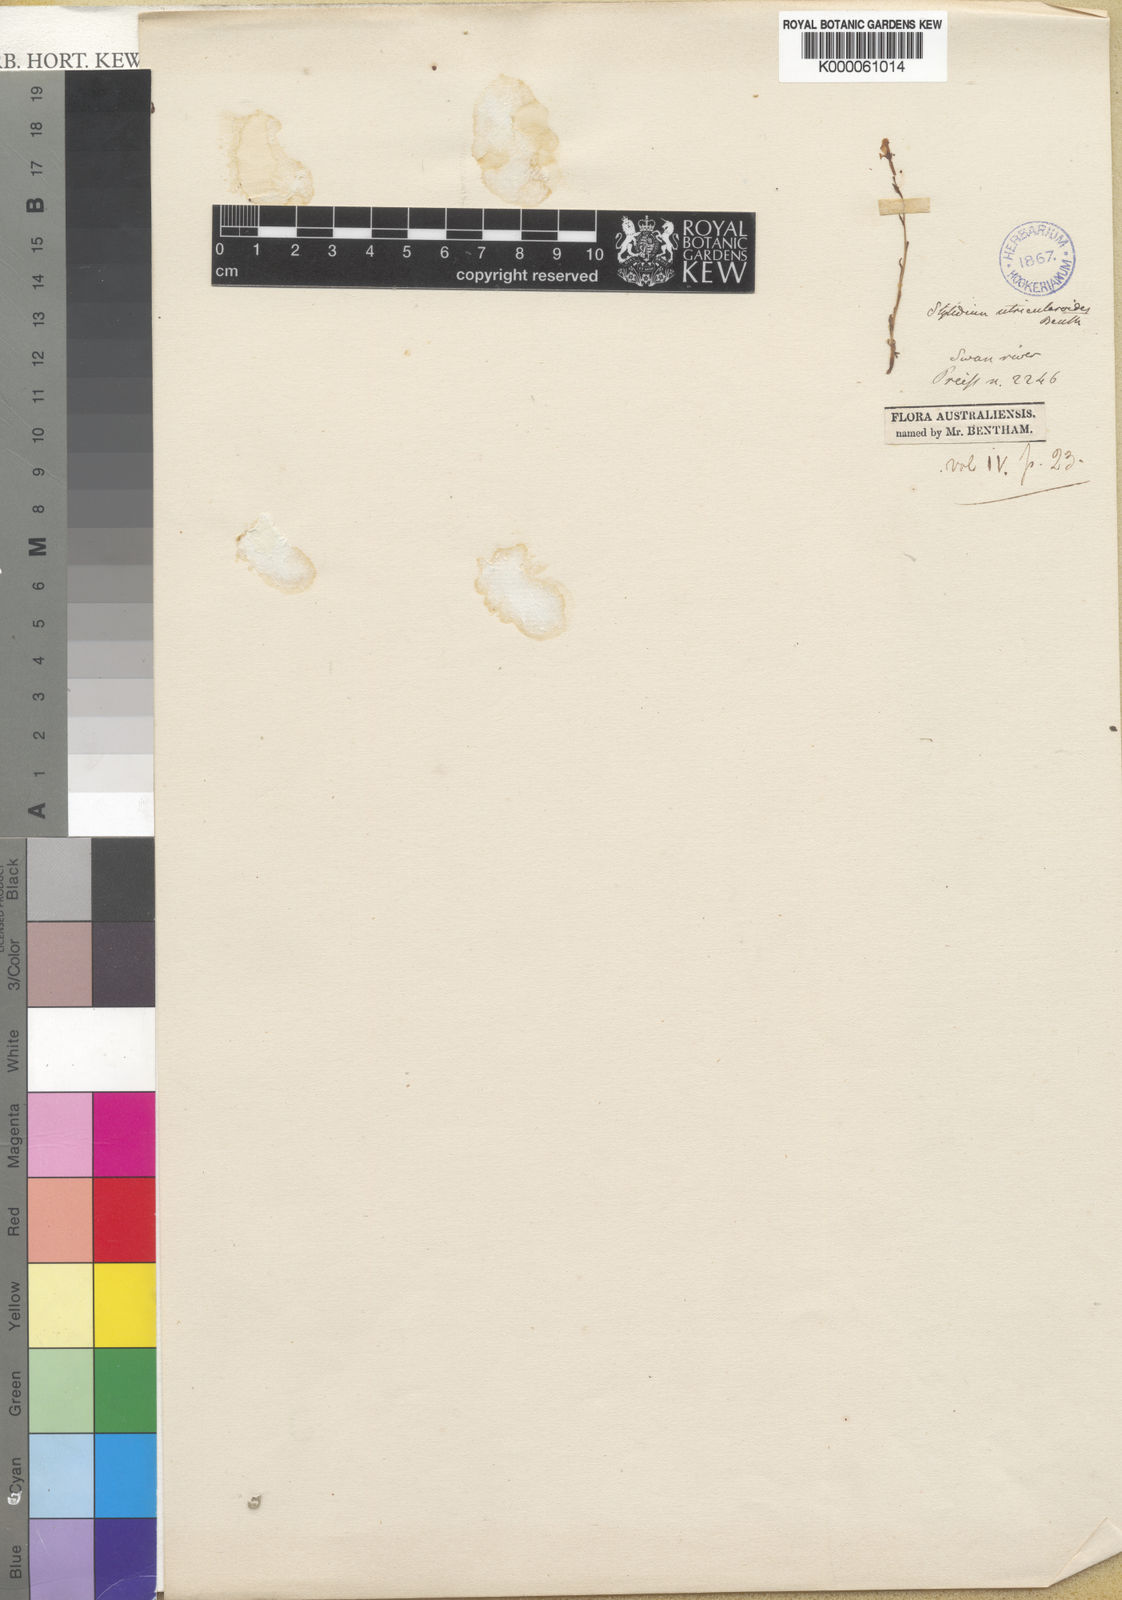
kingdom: Plantae
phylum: Tracheophyta
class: Magnoliopsida
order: Asterales
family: Stylidiaceae
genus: Stylidium
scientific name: Stylidium utricularioides
